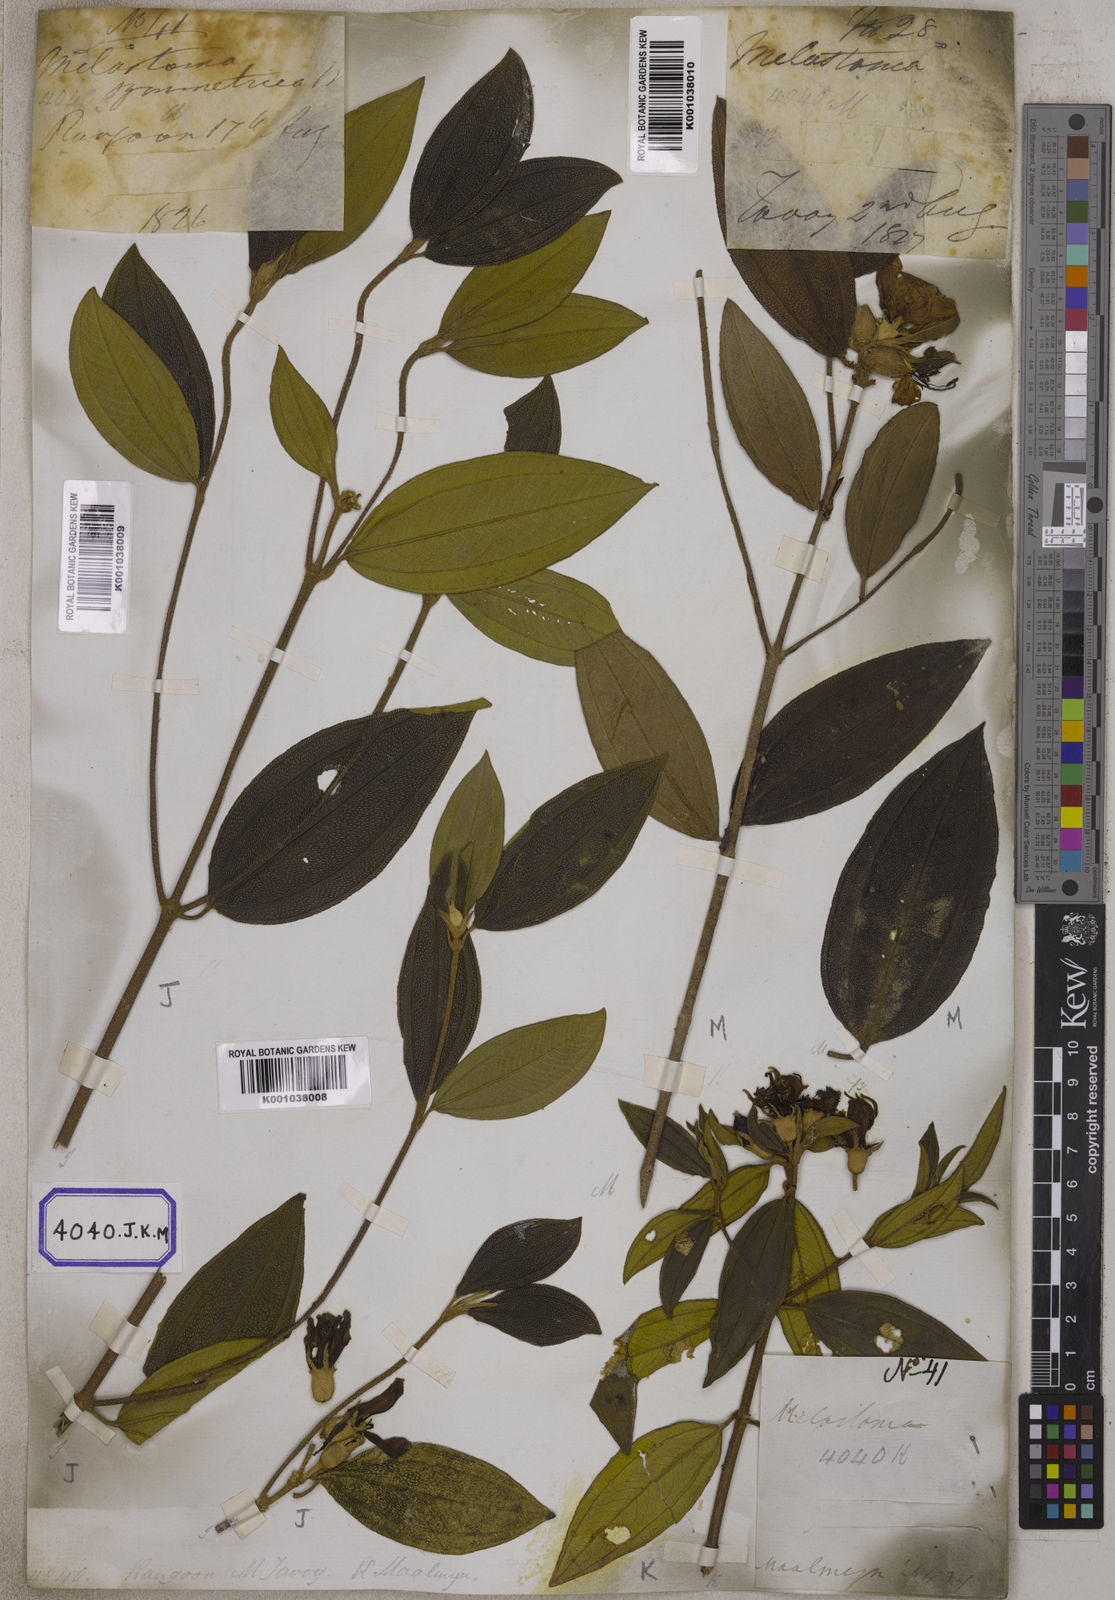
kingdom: Plantae
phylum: Tracheophyta
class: Magnoliopsida
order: Myrtales
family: Melastomataceae
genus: Melastoma
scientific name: Melastoma malabathricum
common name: Indian-rhododendron
